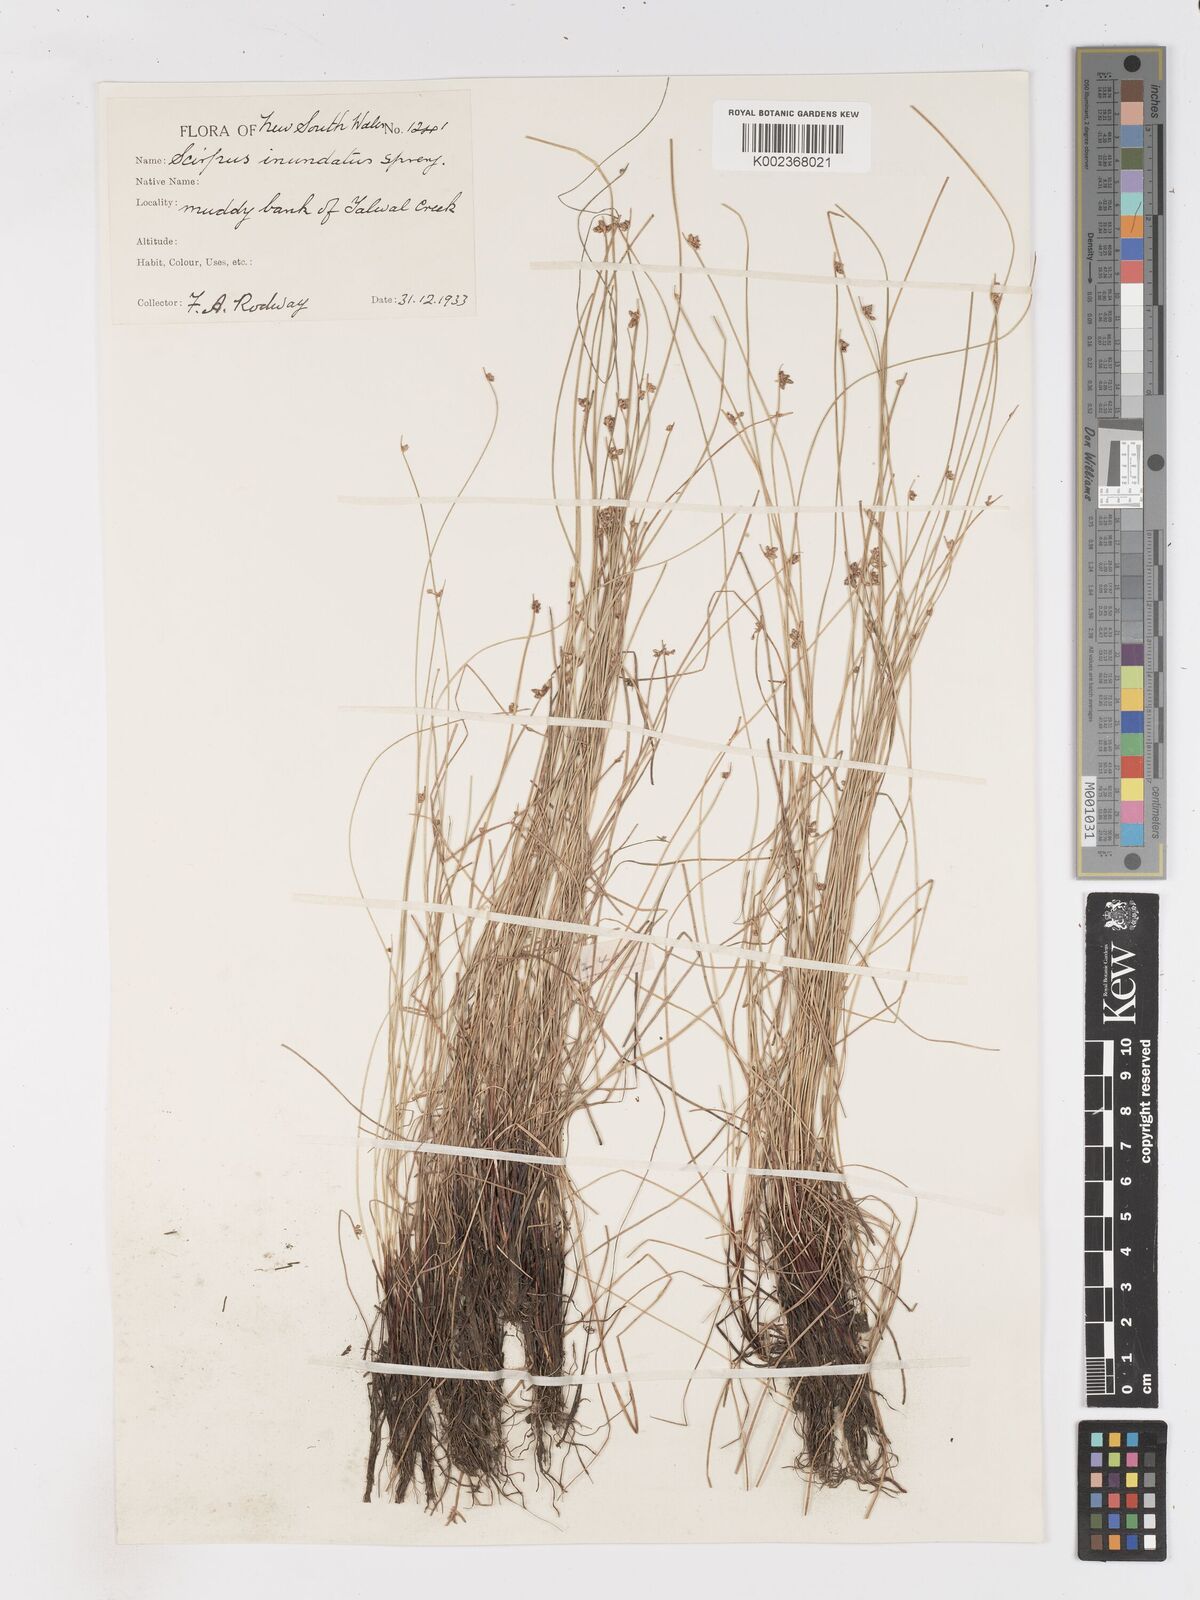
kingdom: Plantae
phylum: Tracheophyta
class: Liliopsida
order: Poales
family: Cyperaceae
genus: Isolepis
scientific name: Isolepis inundata
